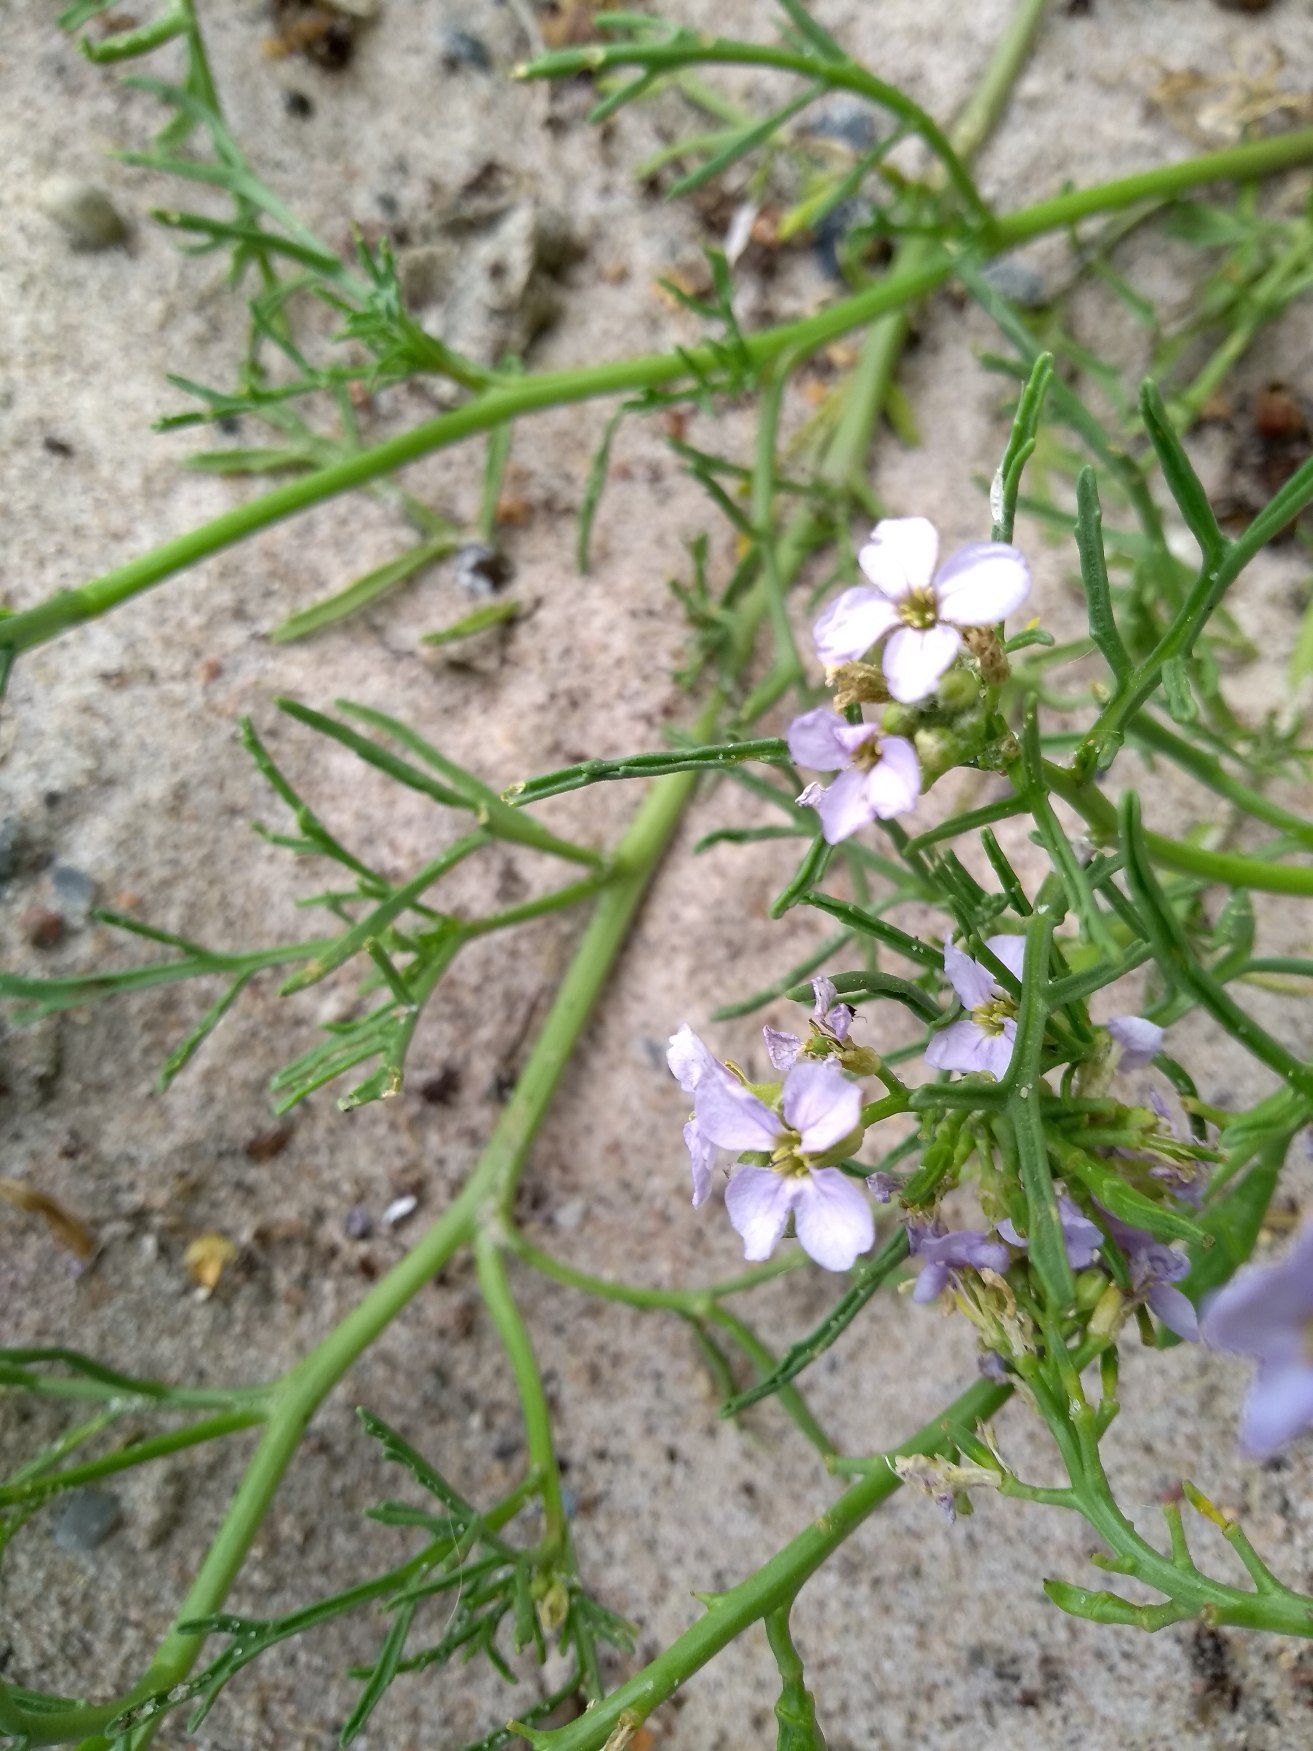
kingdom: Plantae
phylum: Tracheophyta
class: Magnoliopsida
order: Brassicales
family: Brassicaceae
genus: Cakile
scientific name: Cakile maritima
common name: Strandsennep
